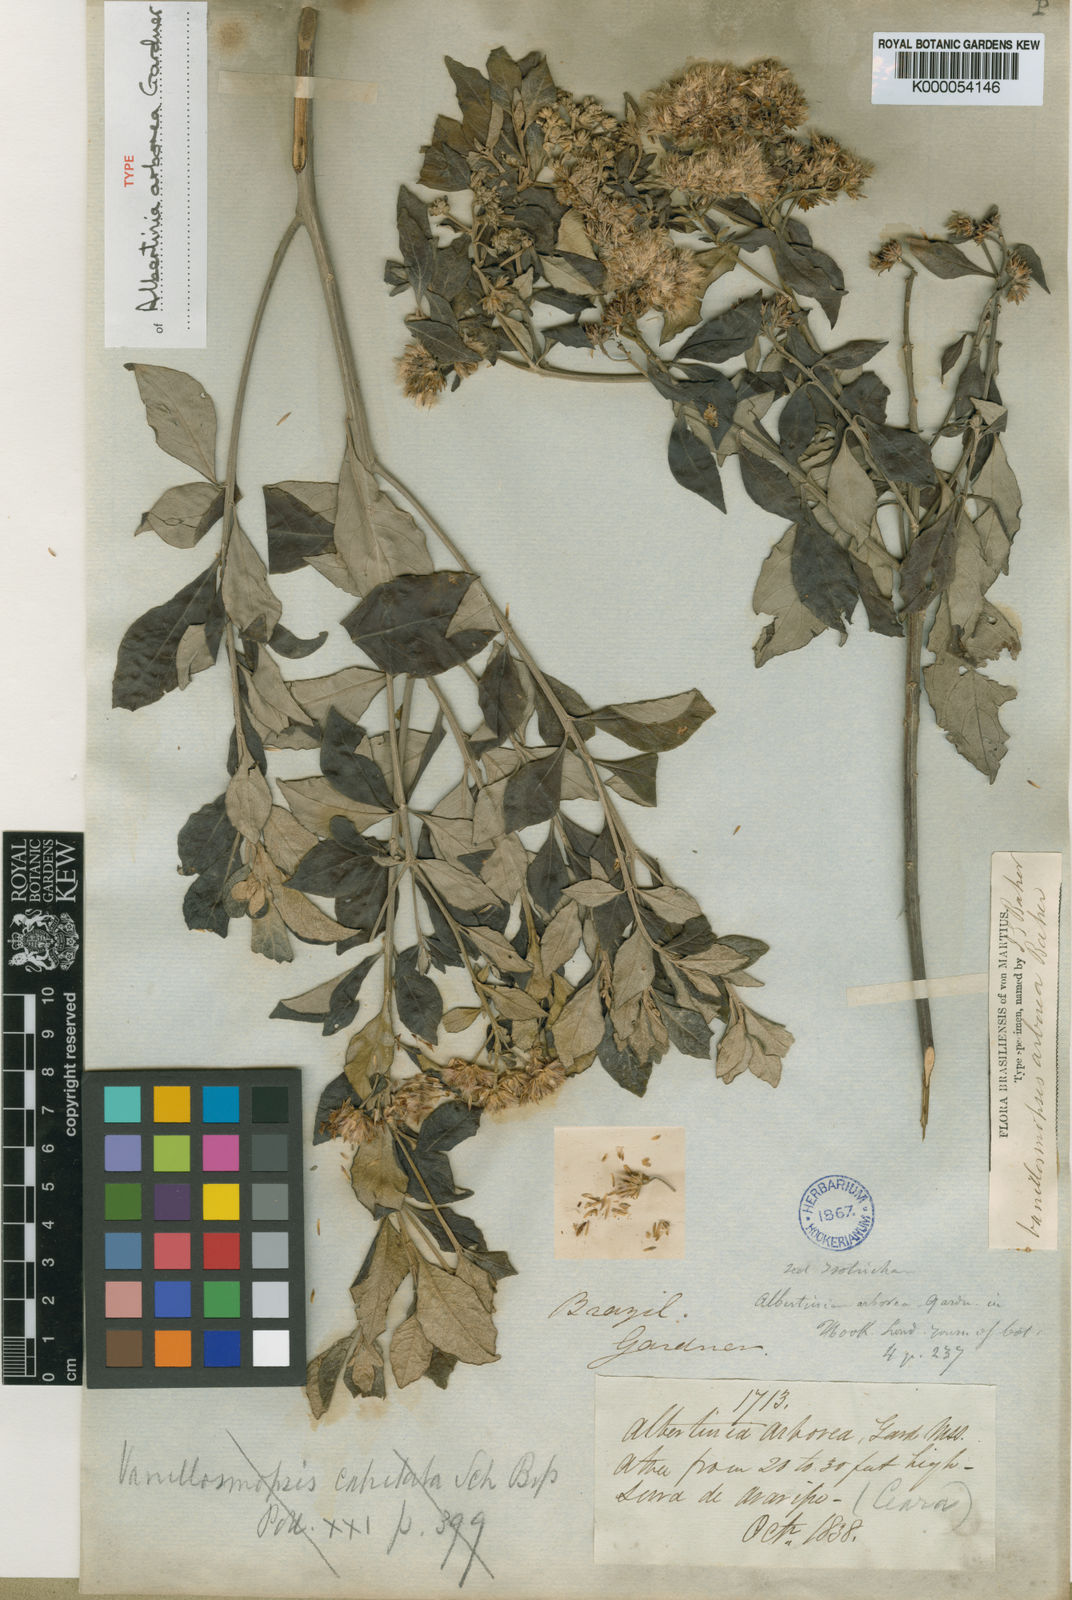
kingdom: Plantae
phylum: Tracheophyta
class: Magnoliopsida
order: Asterales
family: Asteraceae
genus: Eremanthus
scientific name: Eremanthus arboreus
